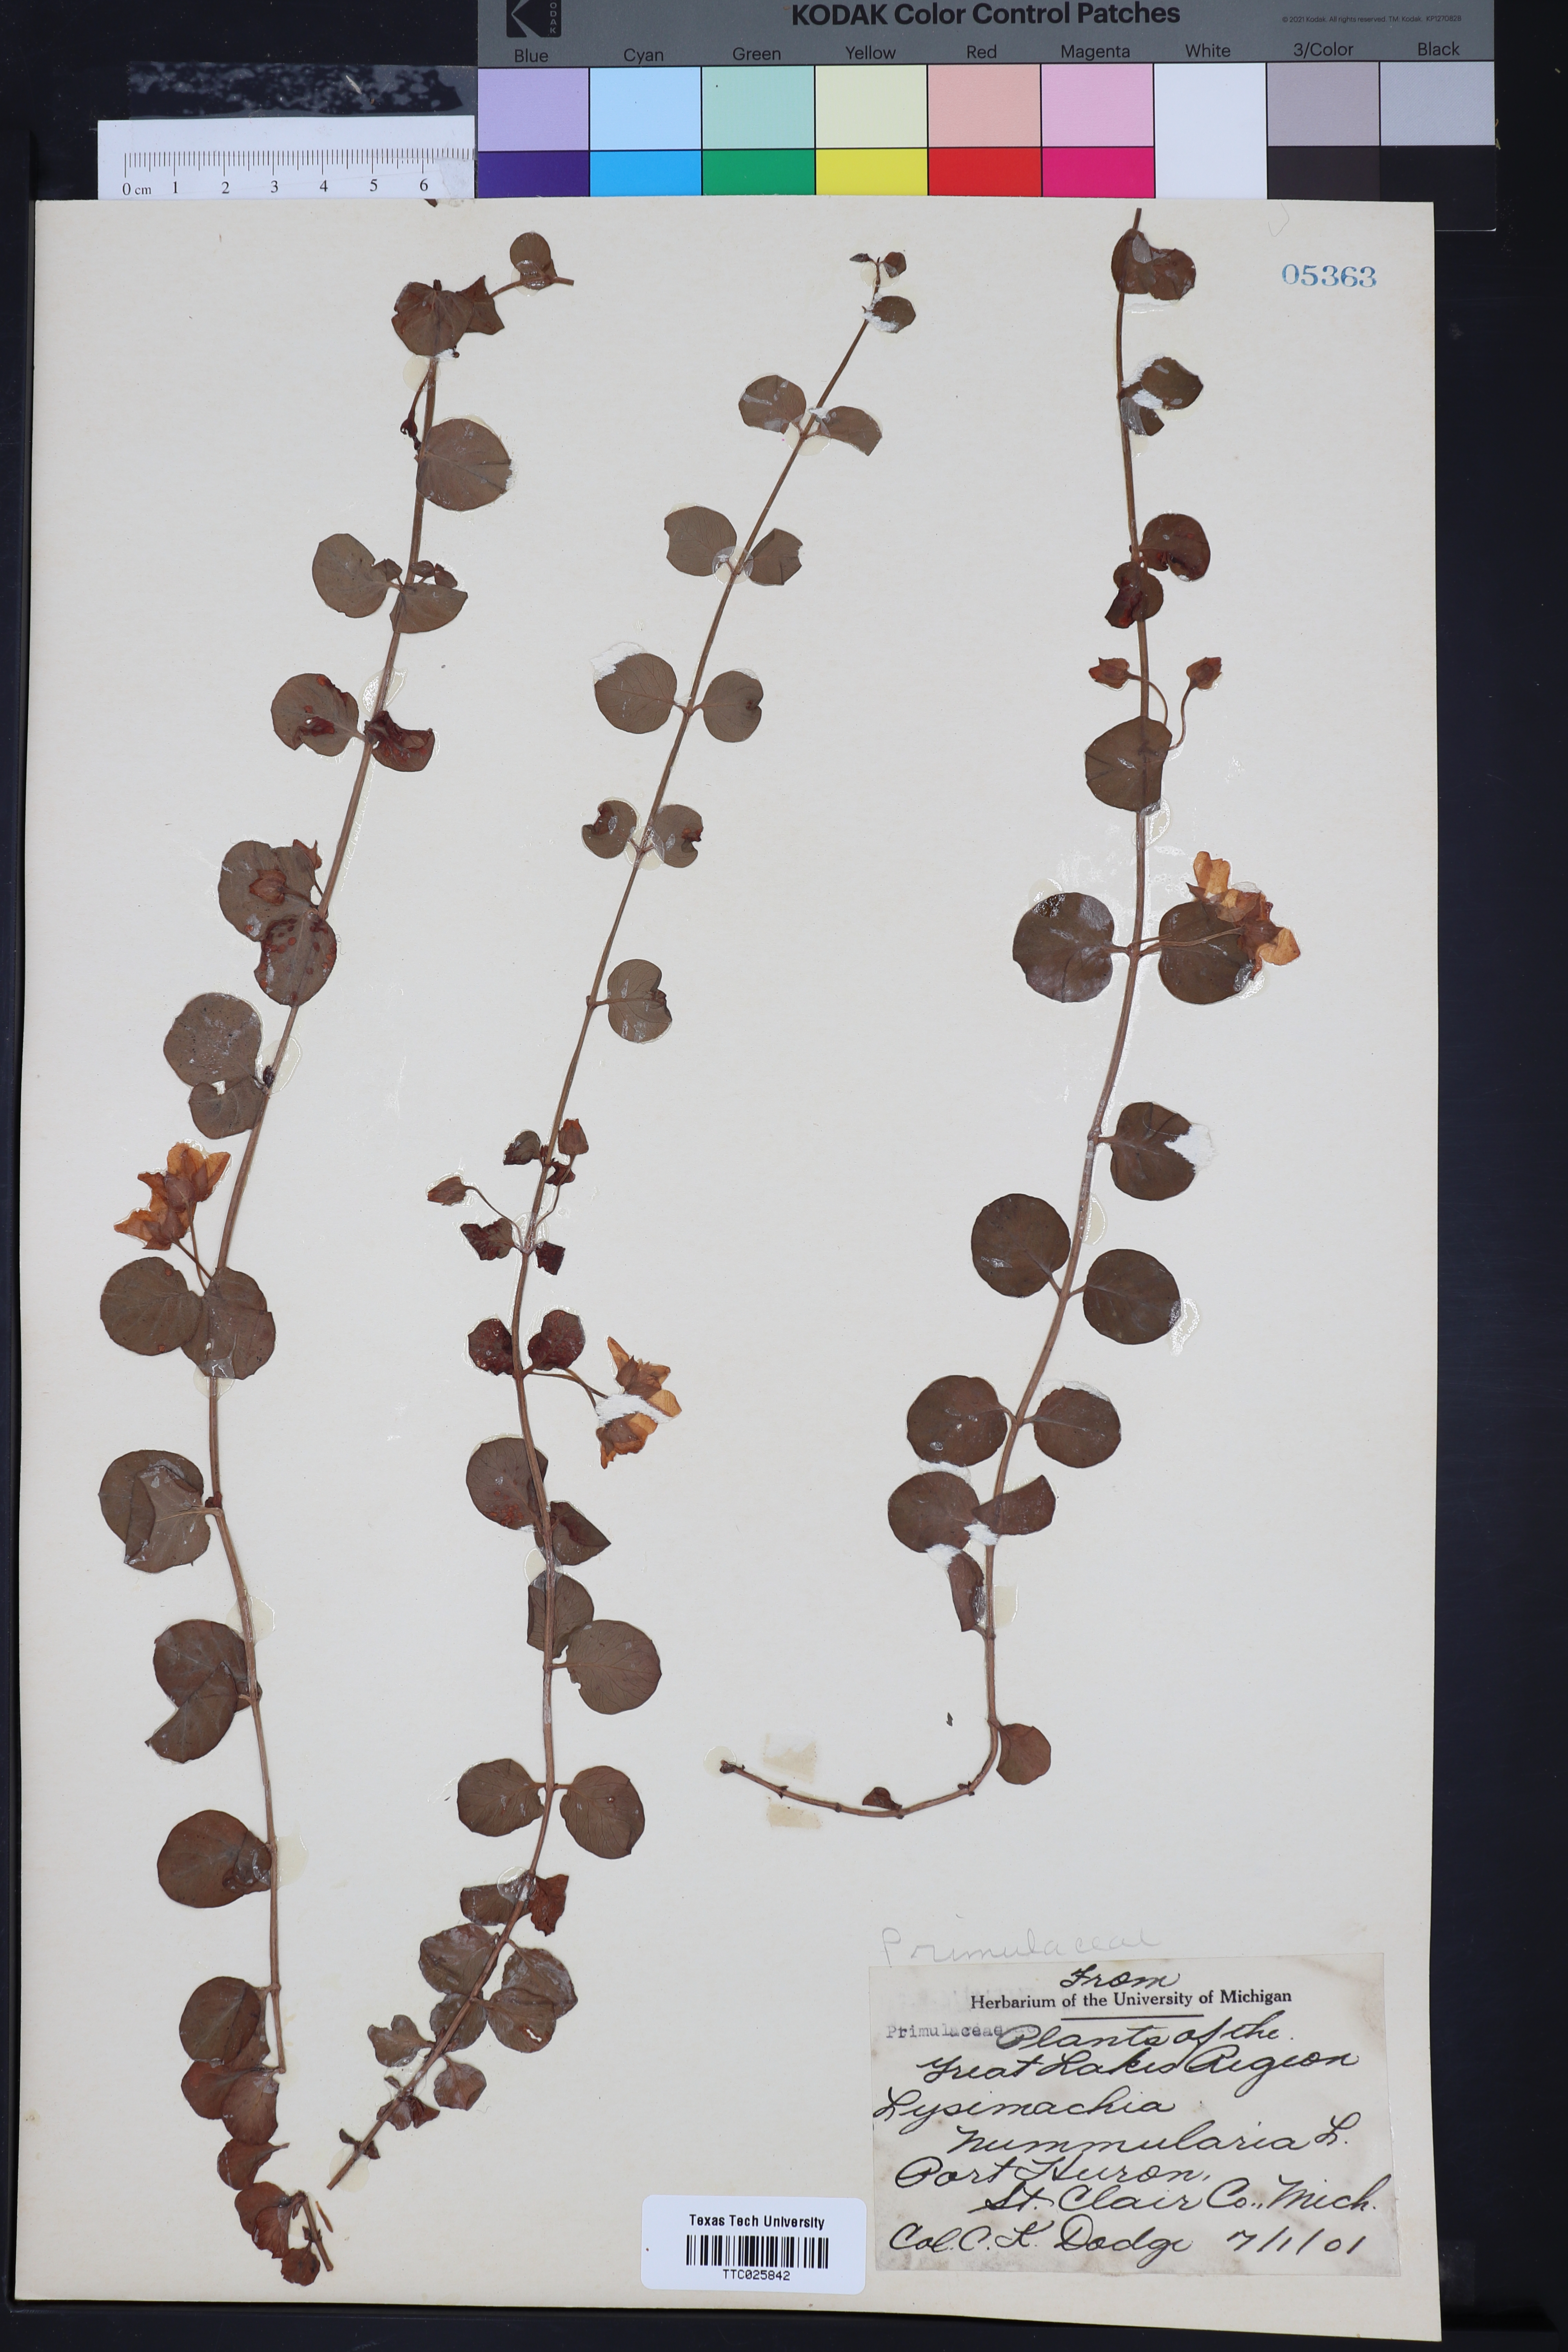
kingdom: Plantae
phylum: Tracheophyta
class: Magnoliopsida
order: Ericales
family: Primulaceae
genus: Lysimachia
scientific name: Lysimachia nummularia
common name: Moneywort
